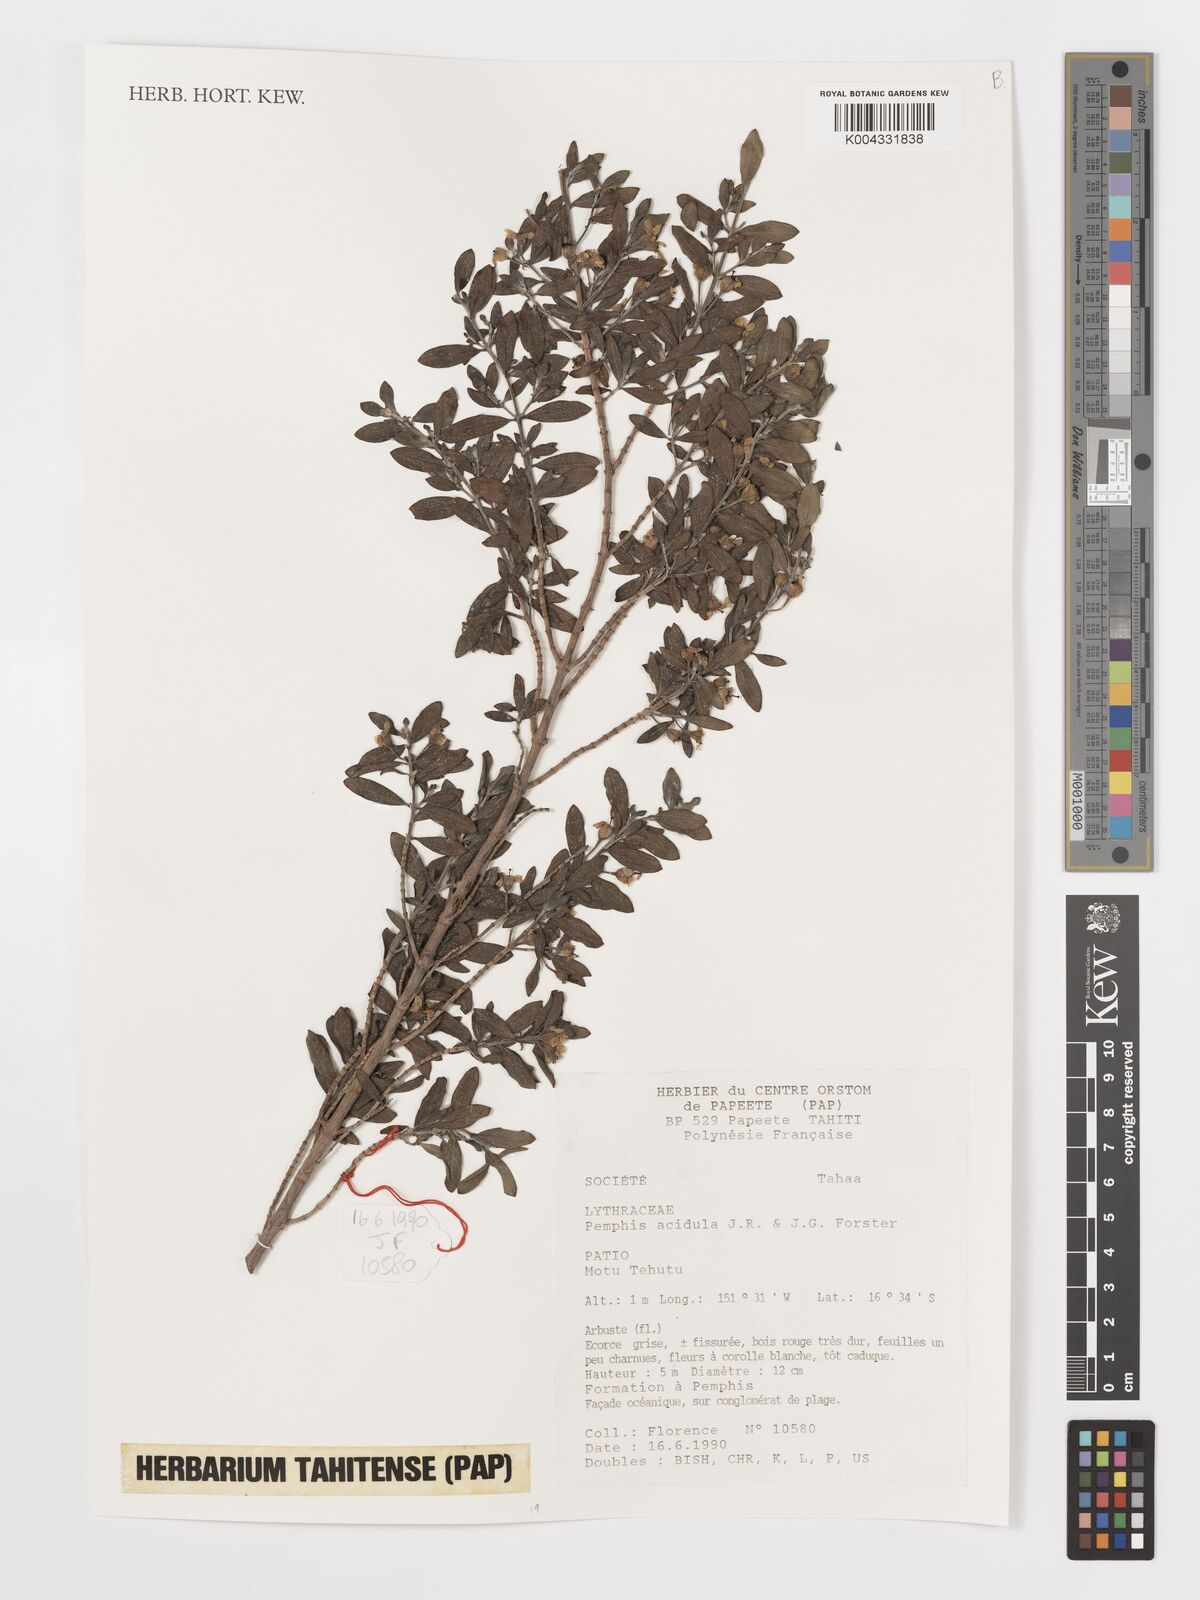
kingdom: Plantae
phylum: Tracheophyta
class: Magnoliopsida
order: Myrtales
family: Lythraceae
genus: Pemphis
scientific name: Pemphis acidula
